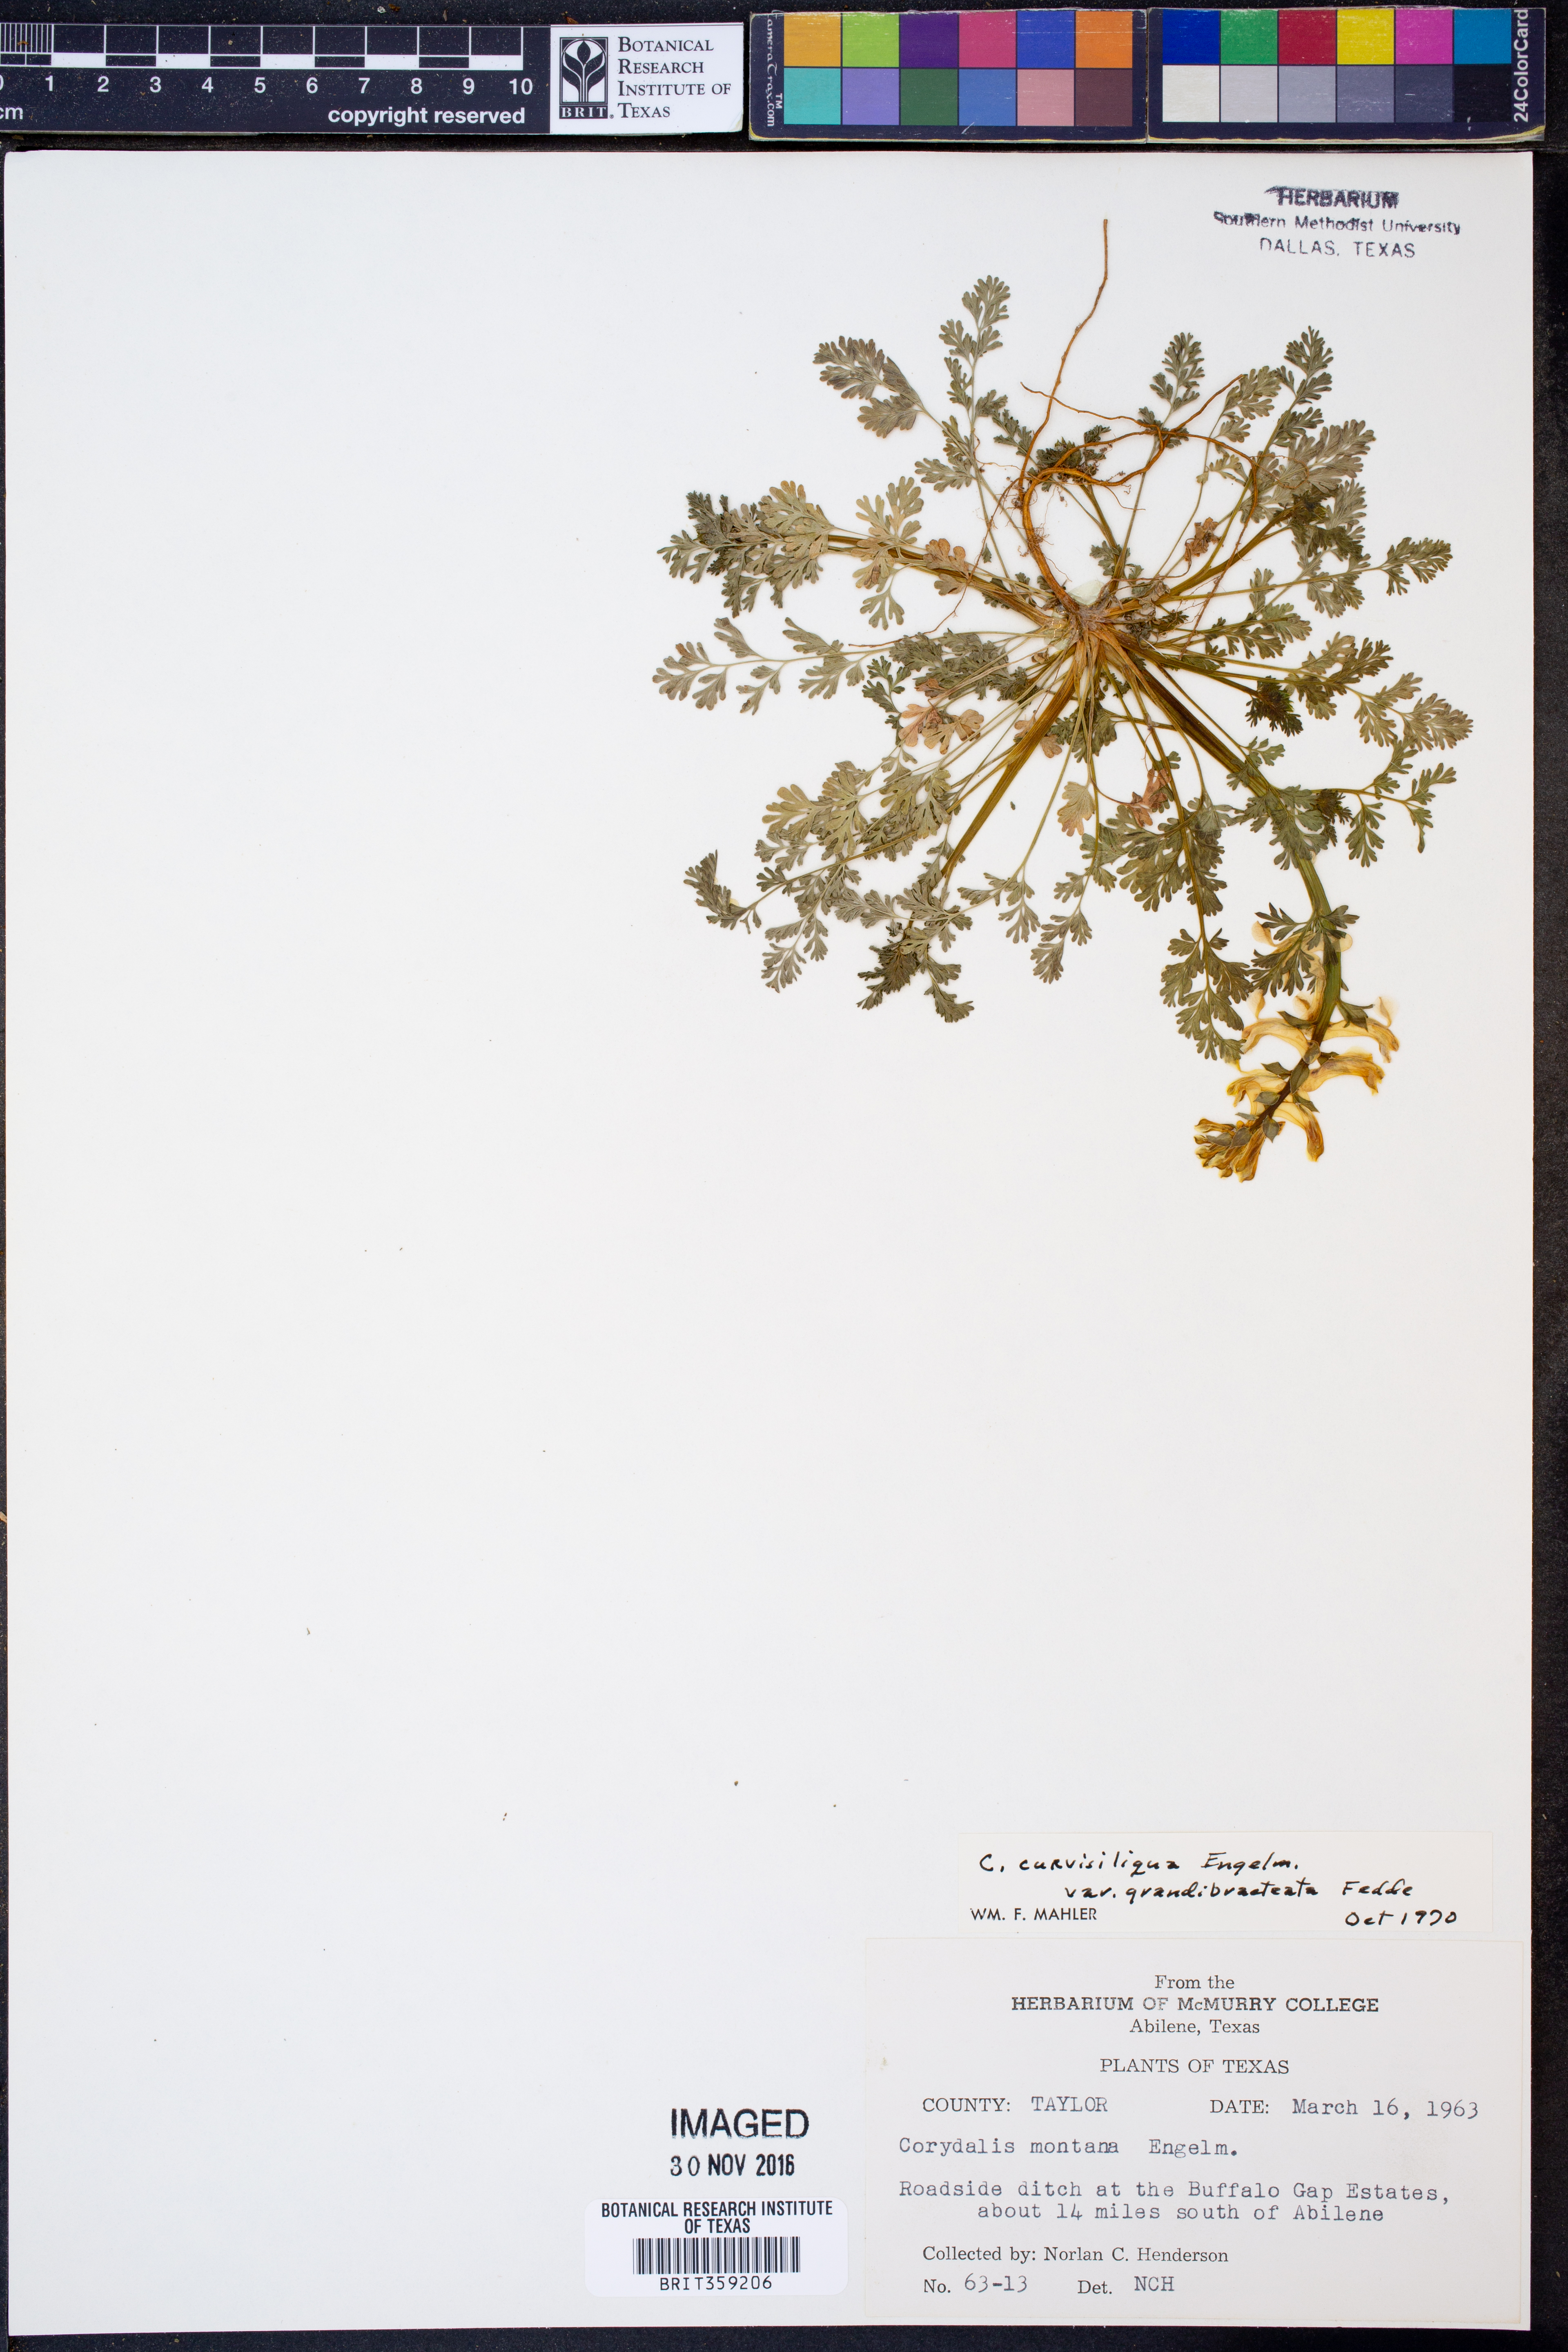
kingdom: Plantae
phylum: Tracheophyta
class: Magnoliopsida
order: Ranunculales
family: Papaveraceae
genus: Corydalis
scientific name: Corydalis curvisiliqua
